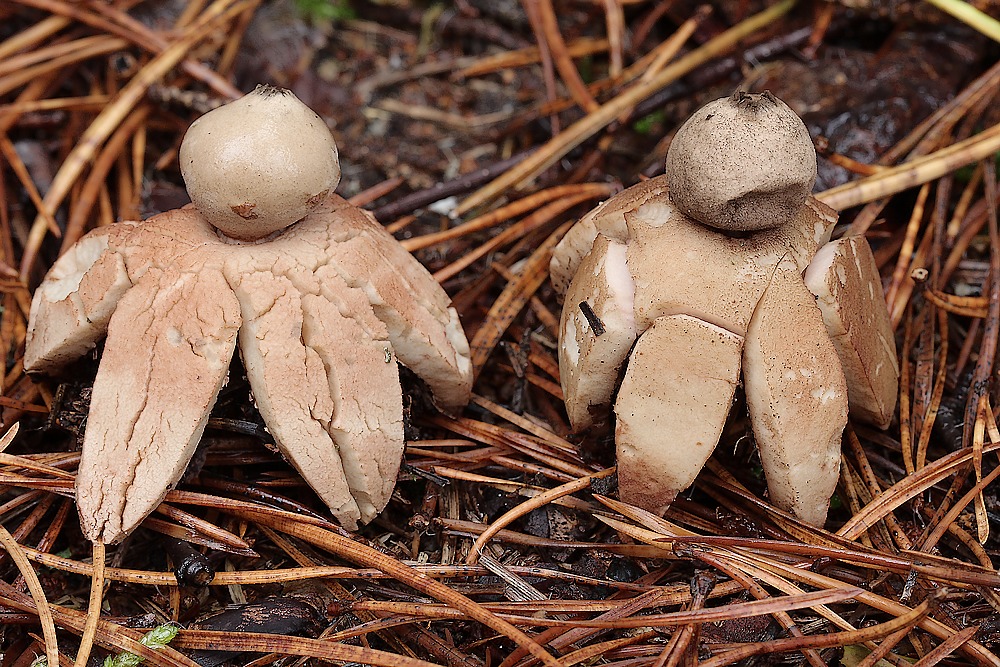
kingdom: Fungi
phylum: Basidiomycota
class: Agaricomycetes
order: Geastrales
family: Geastraceae
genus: Geastrum
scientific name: Geastrum rufescens
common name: kødfarvet stjernebold
